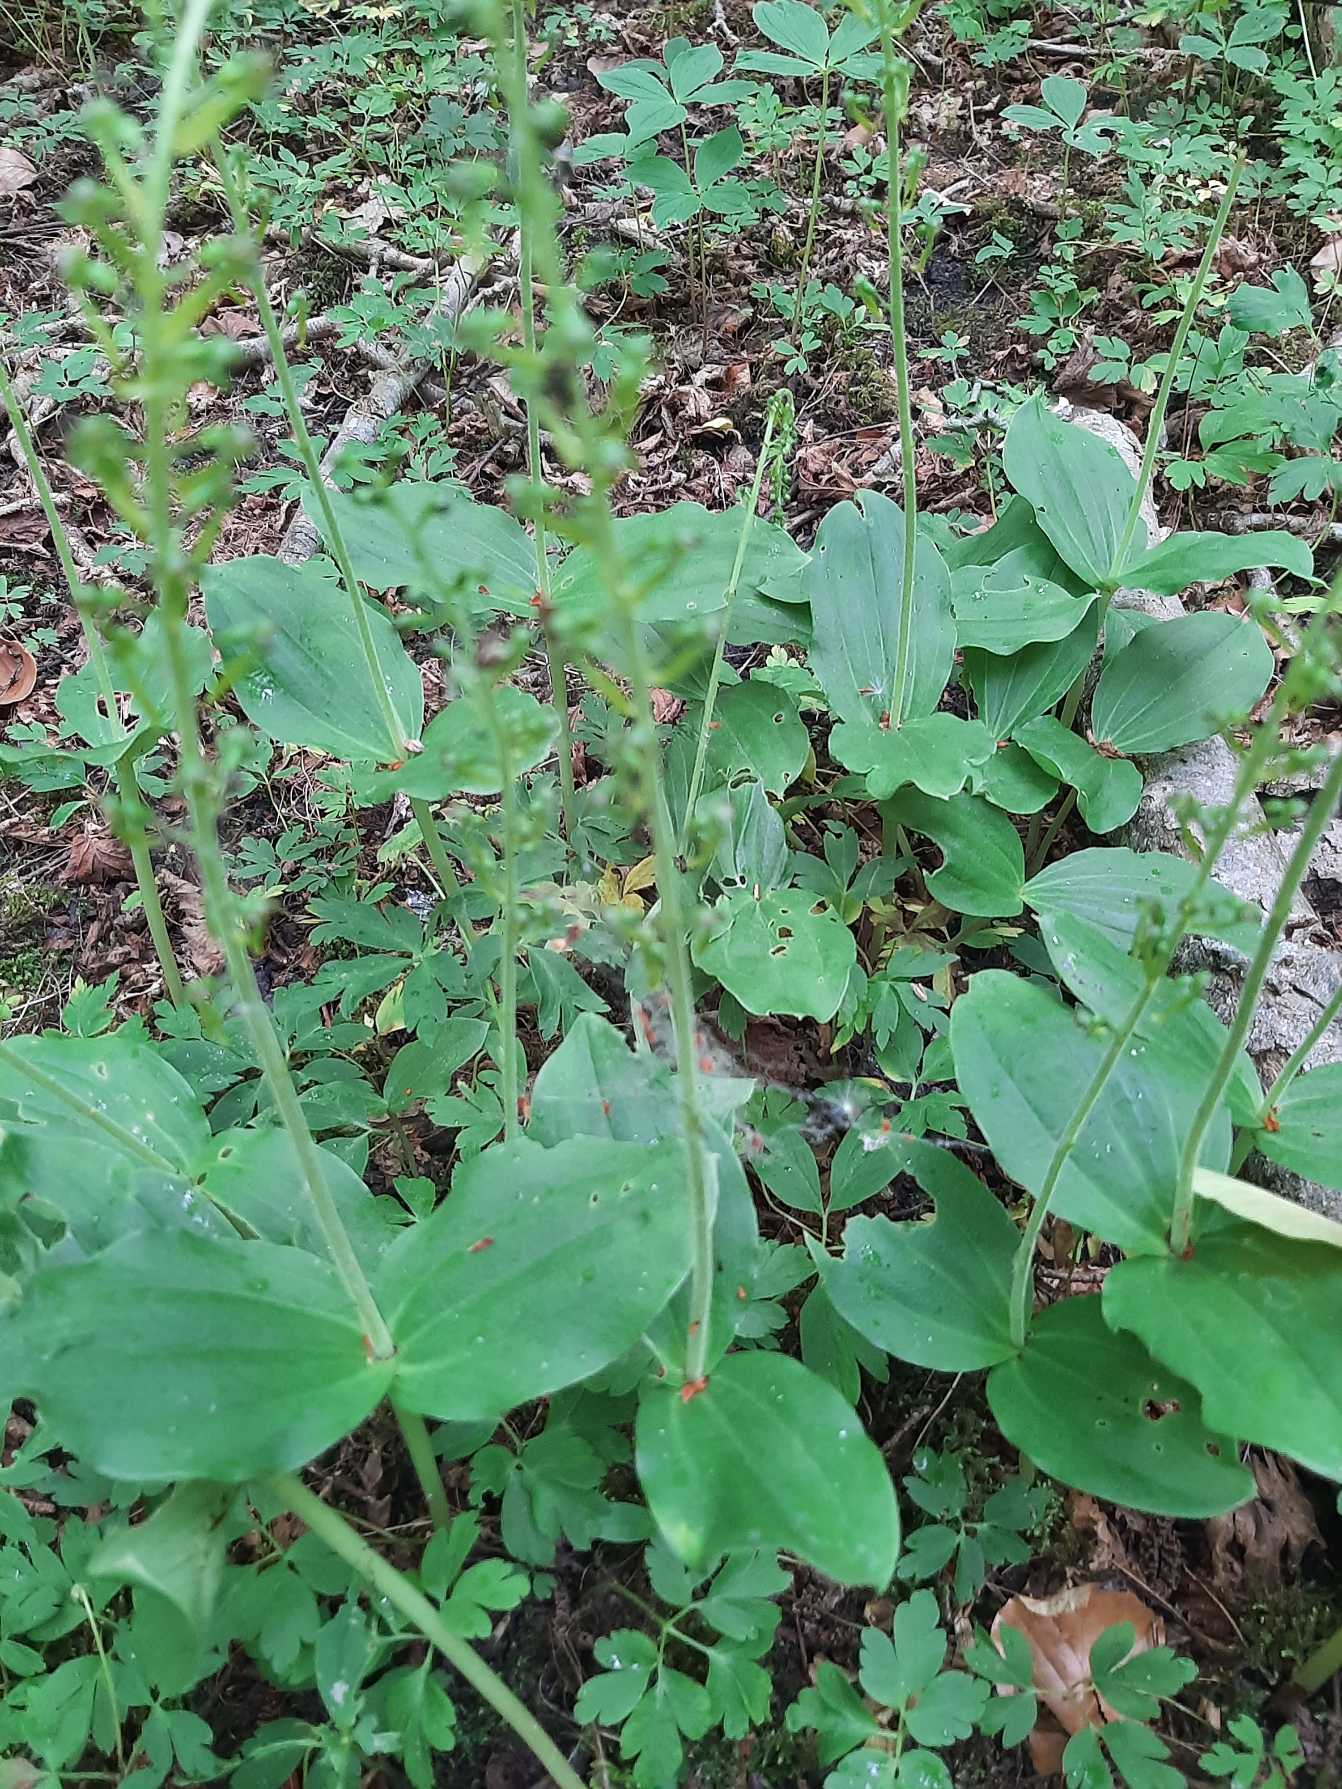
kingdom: Plantae
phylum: Tracheophyta
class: Liliopsida
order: Asparagales
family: Orchidaceae
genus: Neottia
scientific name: Neottia ovata
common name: Ægbladet fliglæbe
